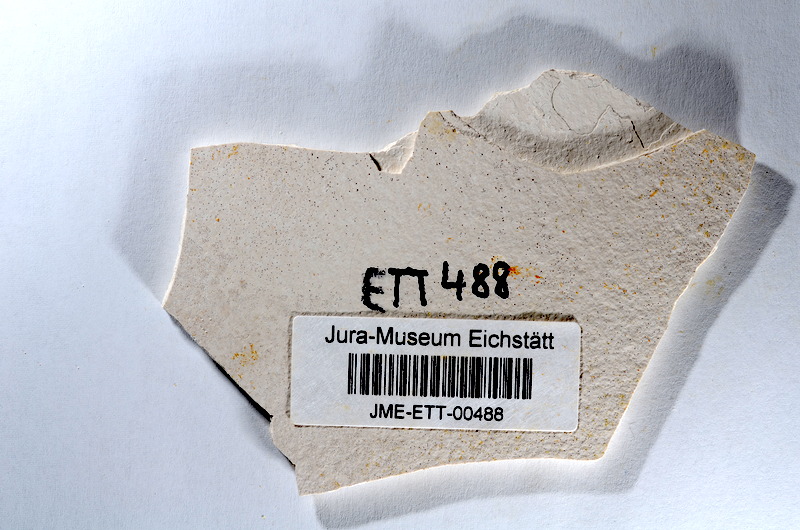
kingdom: Animalia
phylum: Chordata
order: Salmoniformes
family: Orthogonikleithridae
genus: Orthogonikleithrus
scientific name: Orthogonikleithrus hoelli
